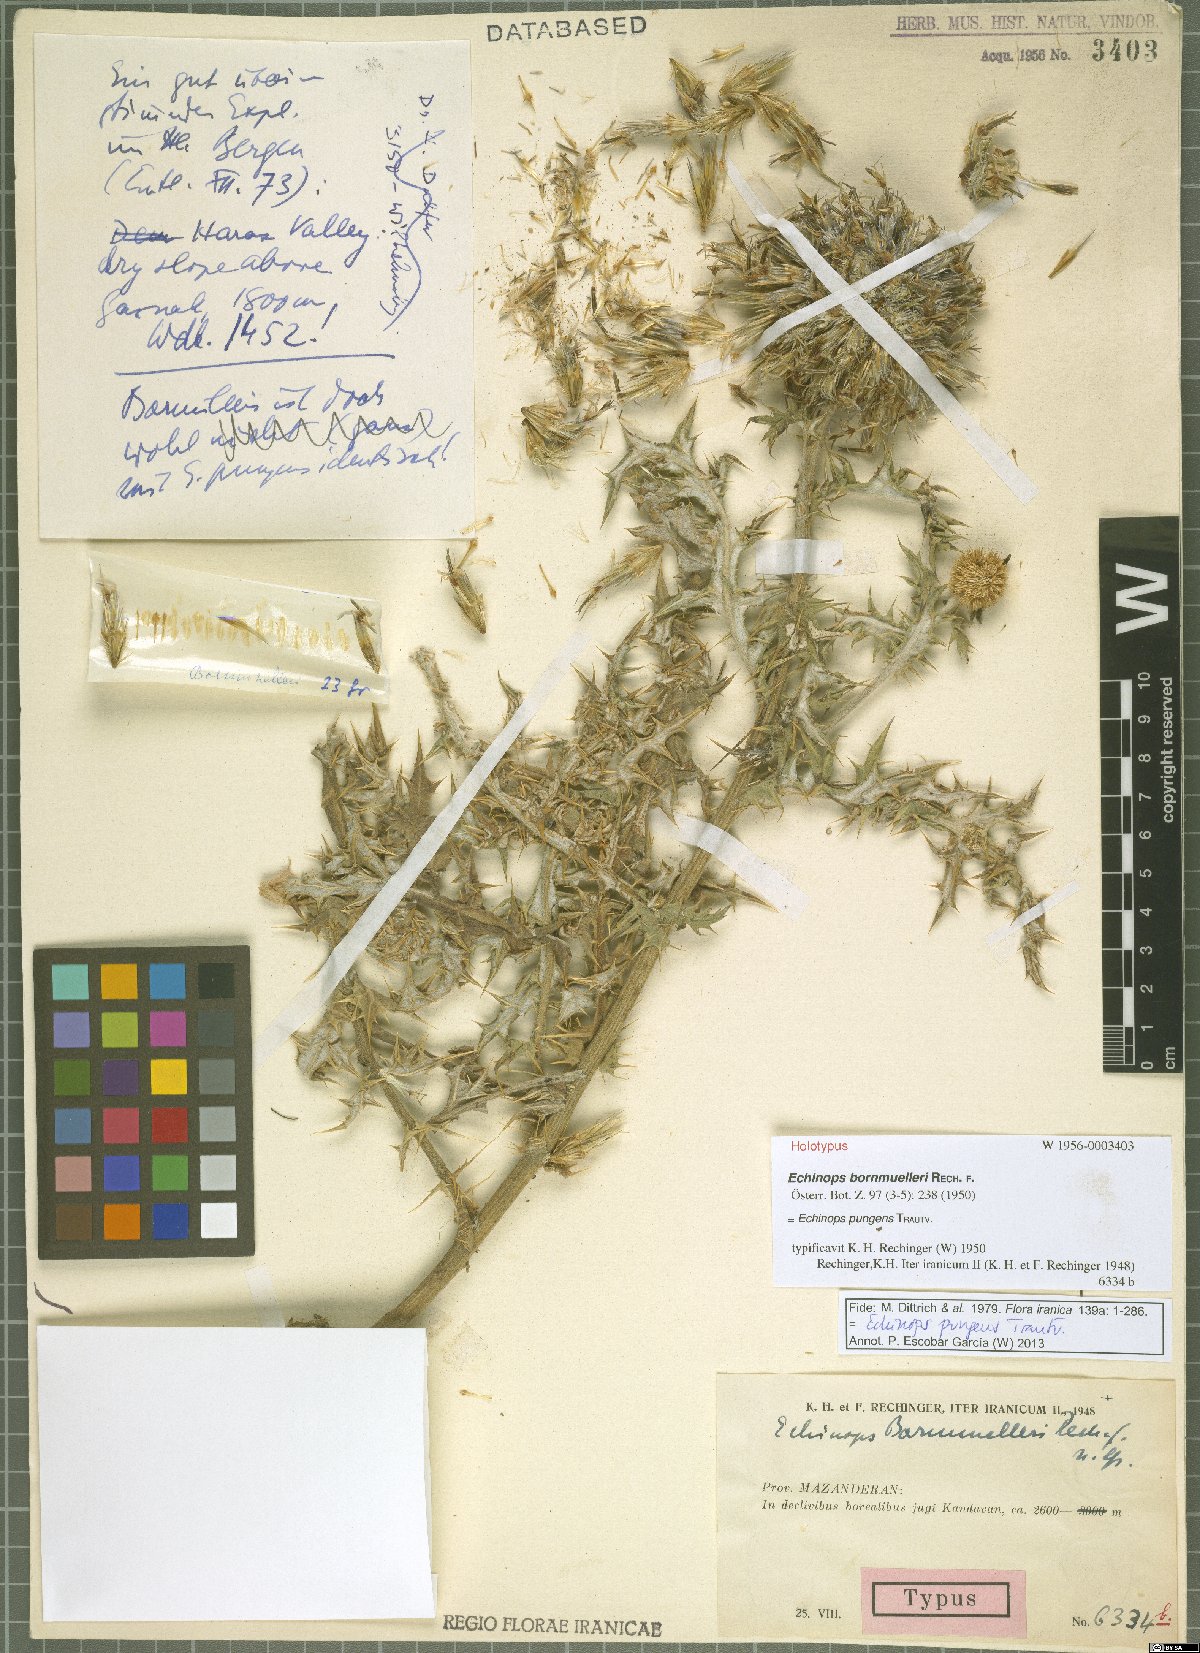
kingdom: Plantae
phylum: Tracheophyta
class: Magnoliopsida
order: Asterales
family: Asteraceae
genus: Echinops
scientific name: Echinops pungens
